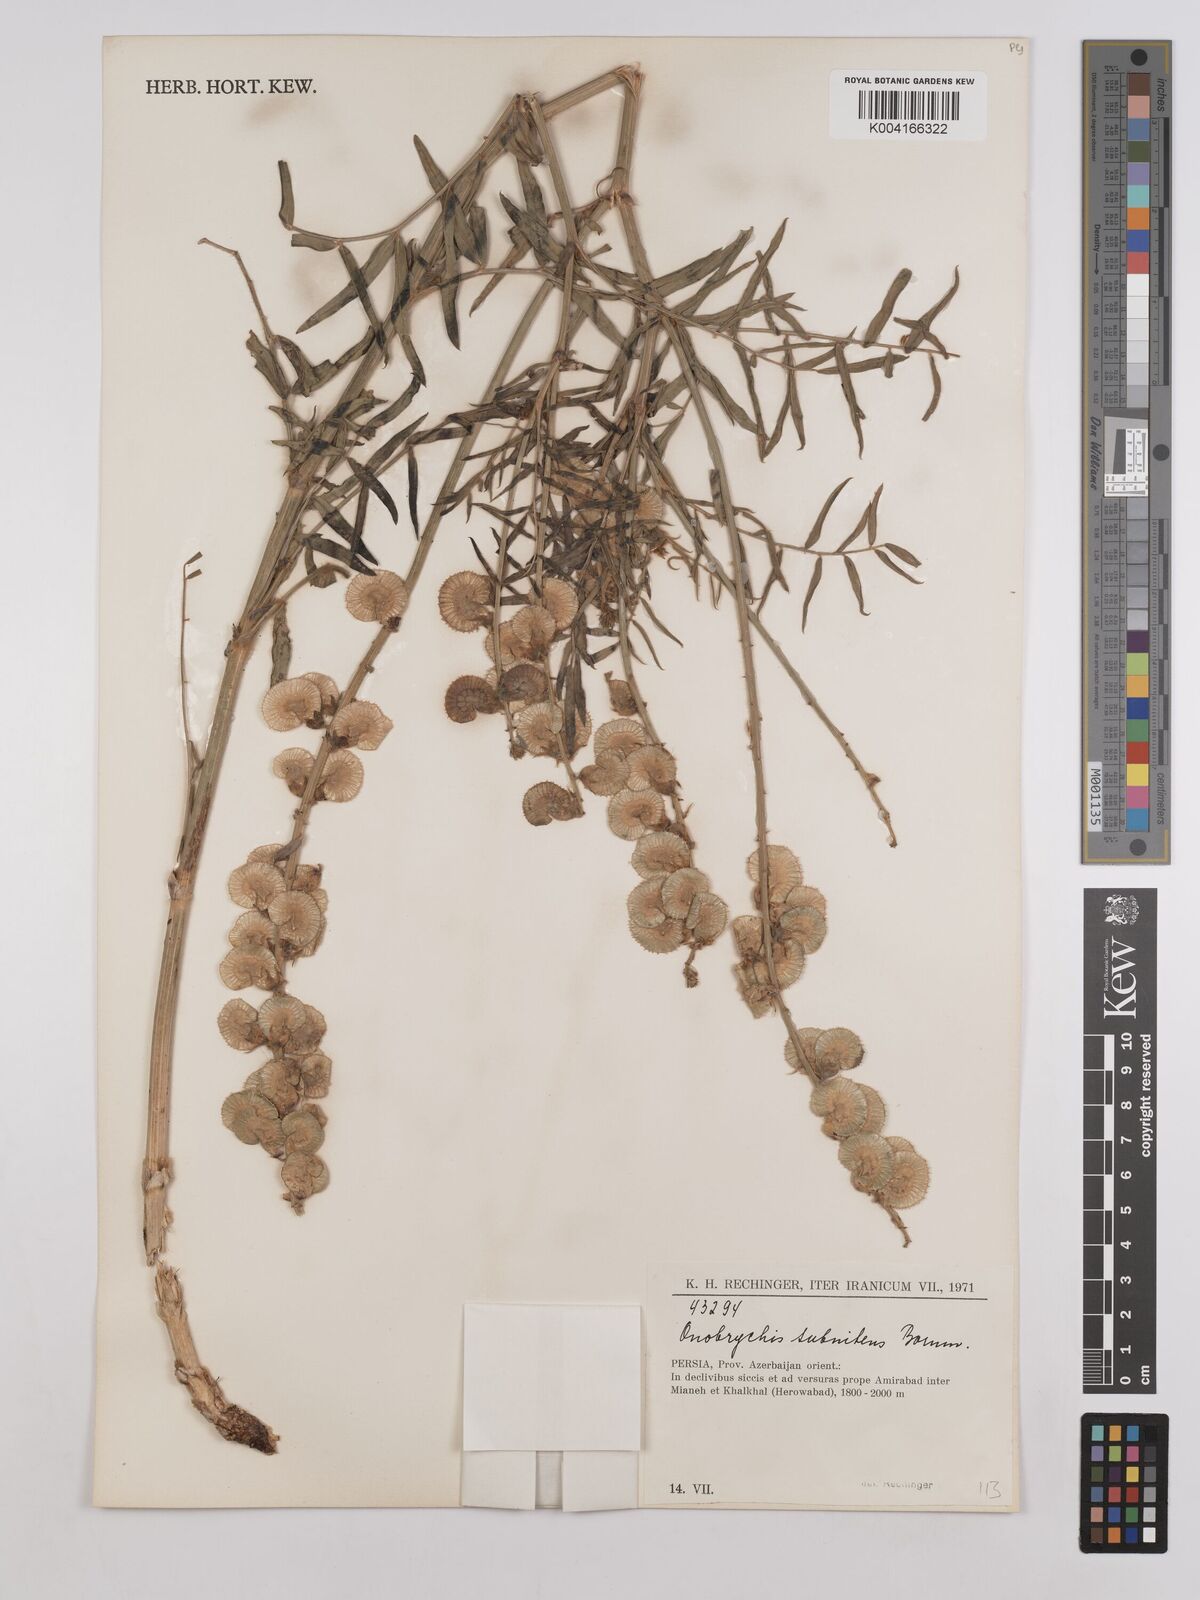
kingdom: Plantae
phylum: Tracheophyta
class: Magnoliopsida
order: Fabales
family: Fabaceae
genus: Onobrychis
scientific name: Onobrychis subnitens
